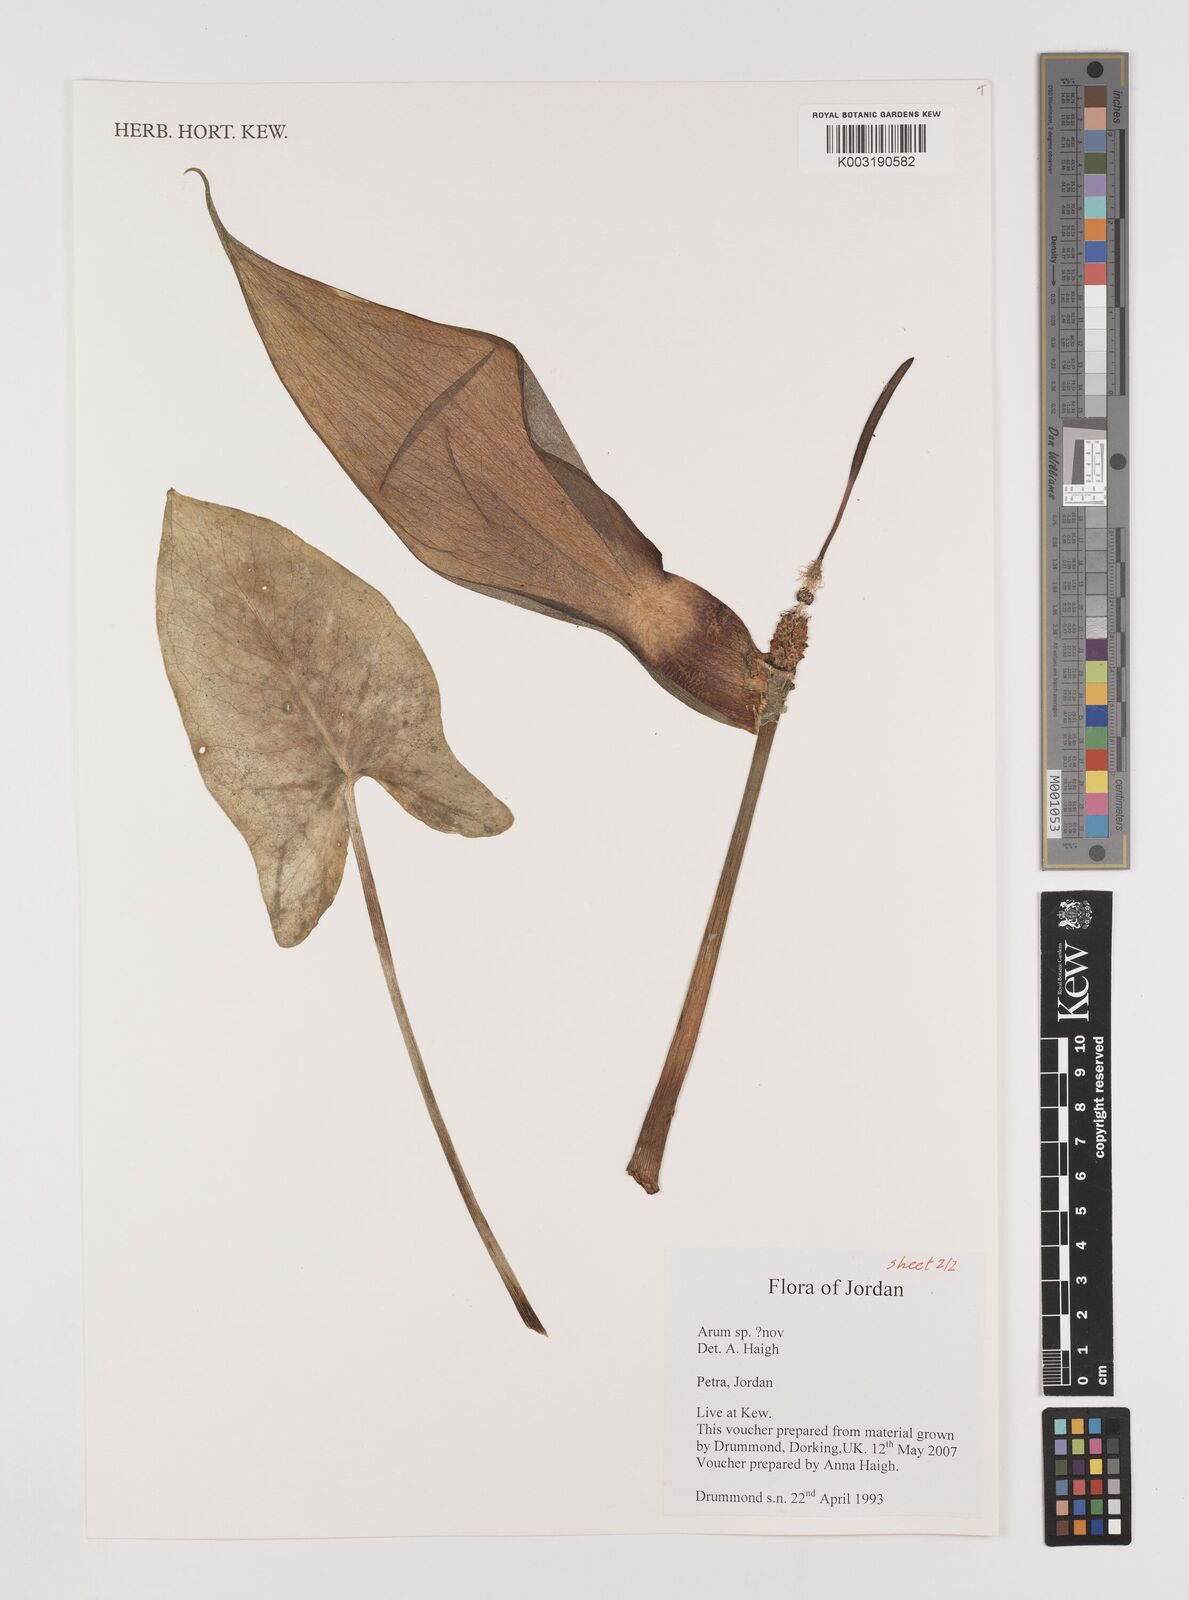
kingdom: Plantae
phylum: Tracheophyta
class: Liliopsida
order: Alismatales
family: Araceae
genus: Arum
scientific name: Arum
